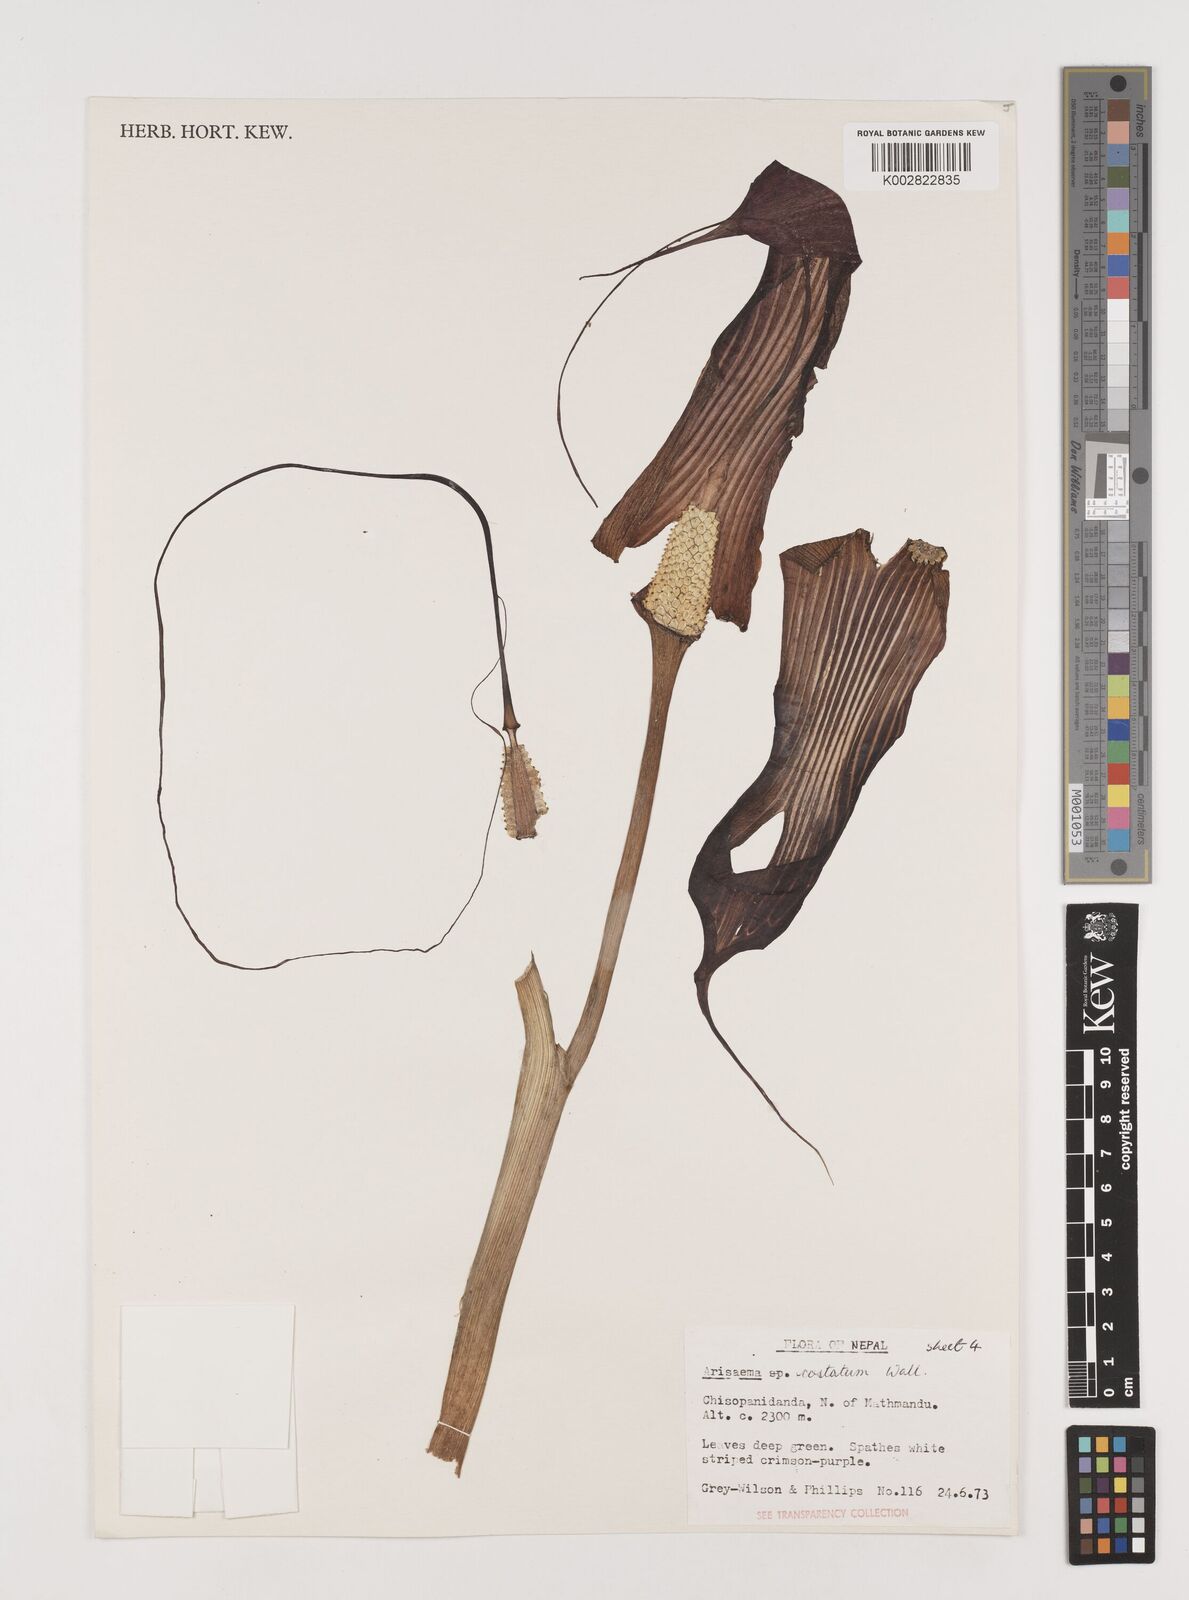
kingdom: Plantae
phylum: Tracheophyta
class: Liliopsida
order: Alismatales
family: Araceae
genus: Arisaema
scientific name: Arisaema costatum
